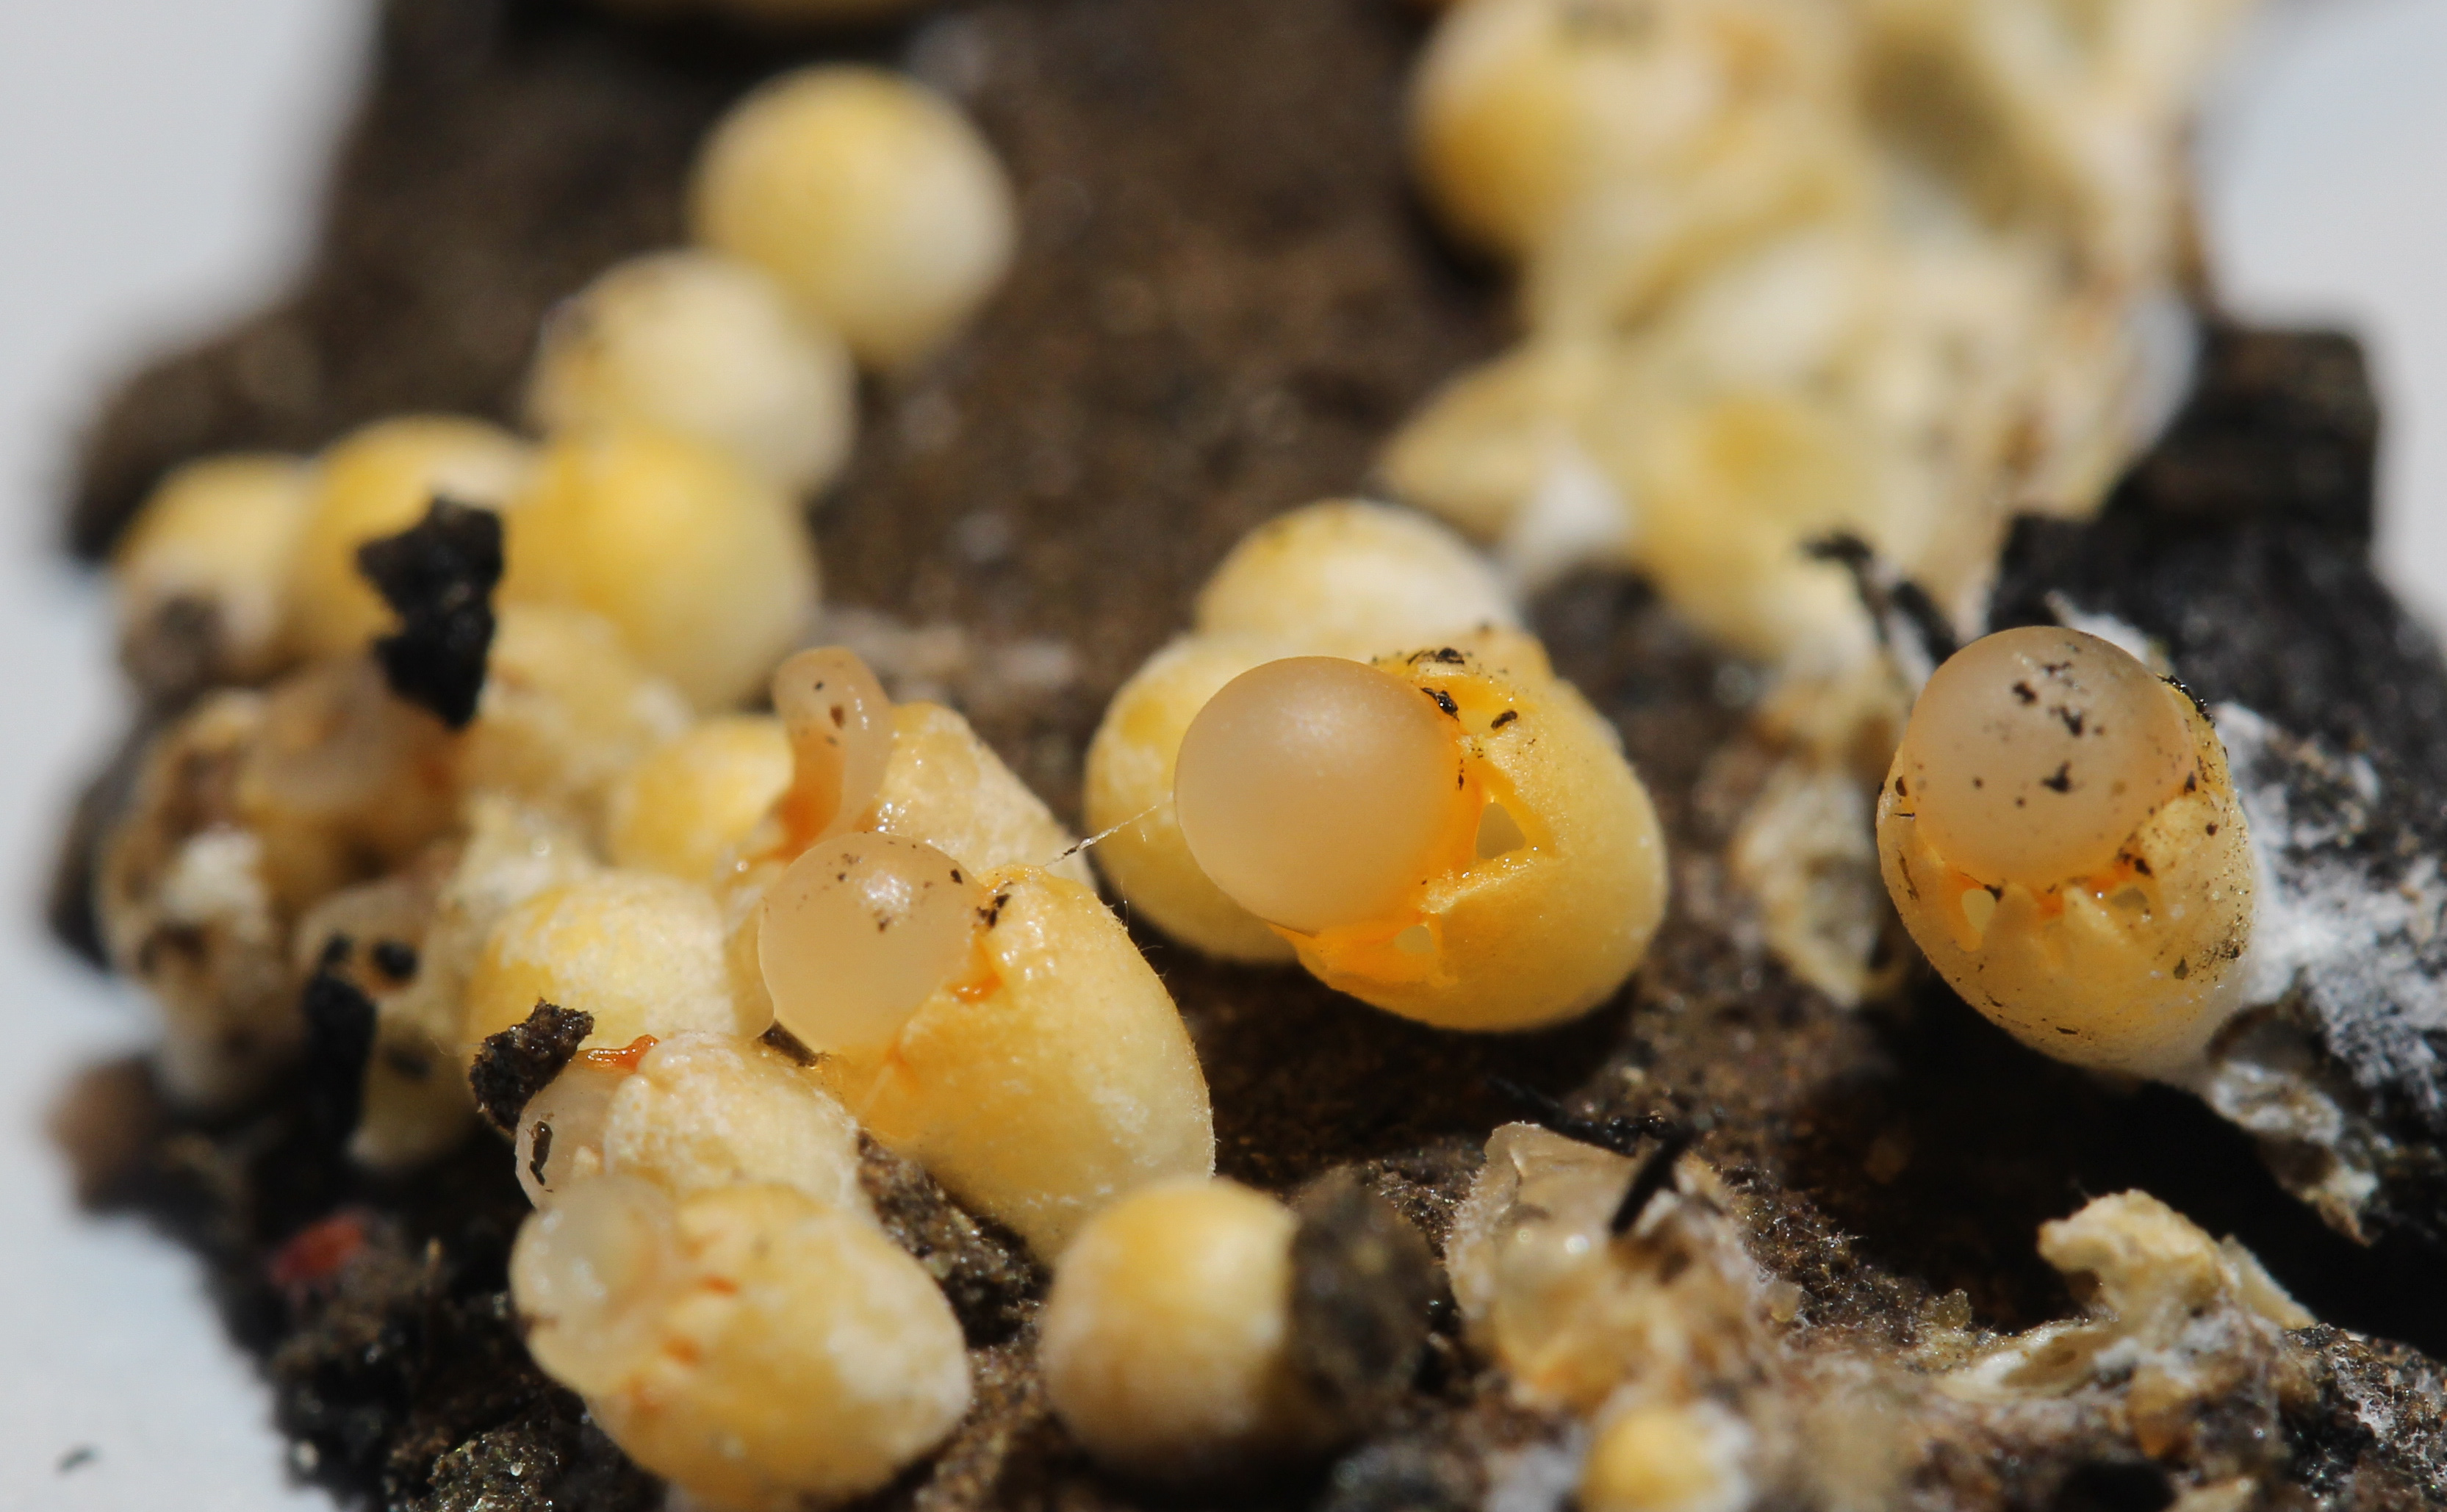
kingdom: Fungi
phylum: Basidiomycota
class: Agaricomycetes
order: Geastrales
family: Geastraceae
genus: Sphaerobolus
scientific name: Sphaerobolus stellatus
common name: Cannon fungus
